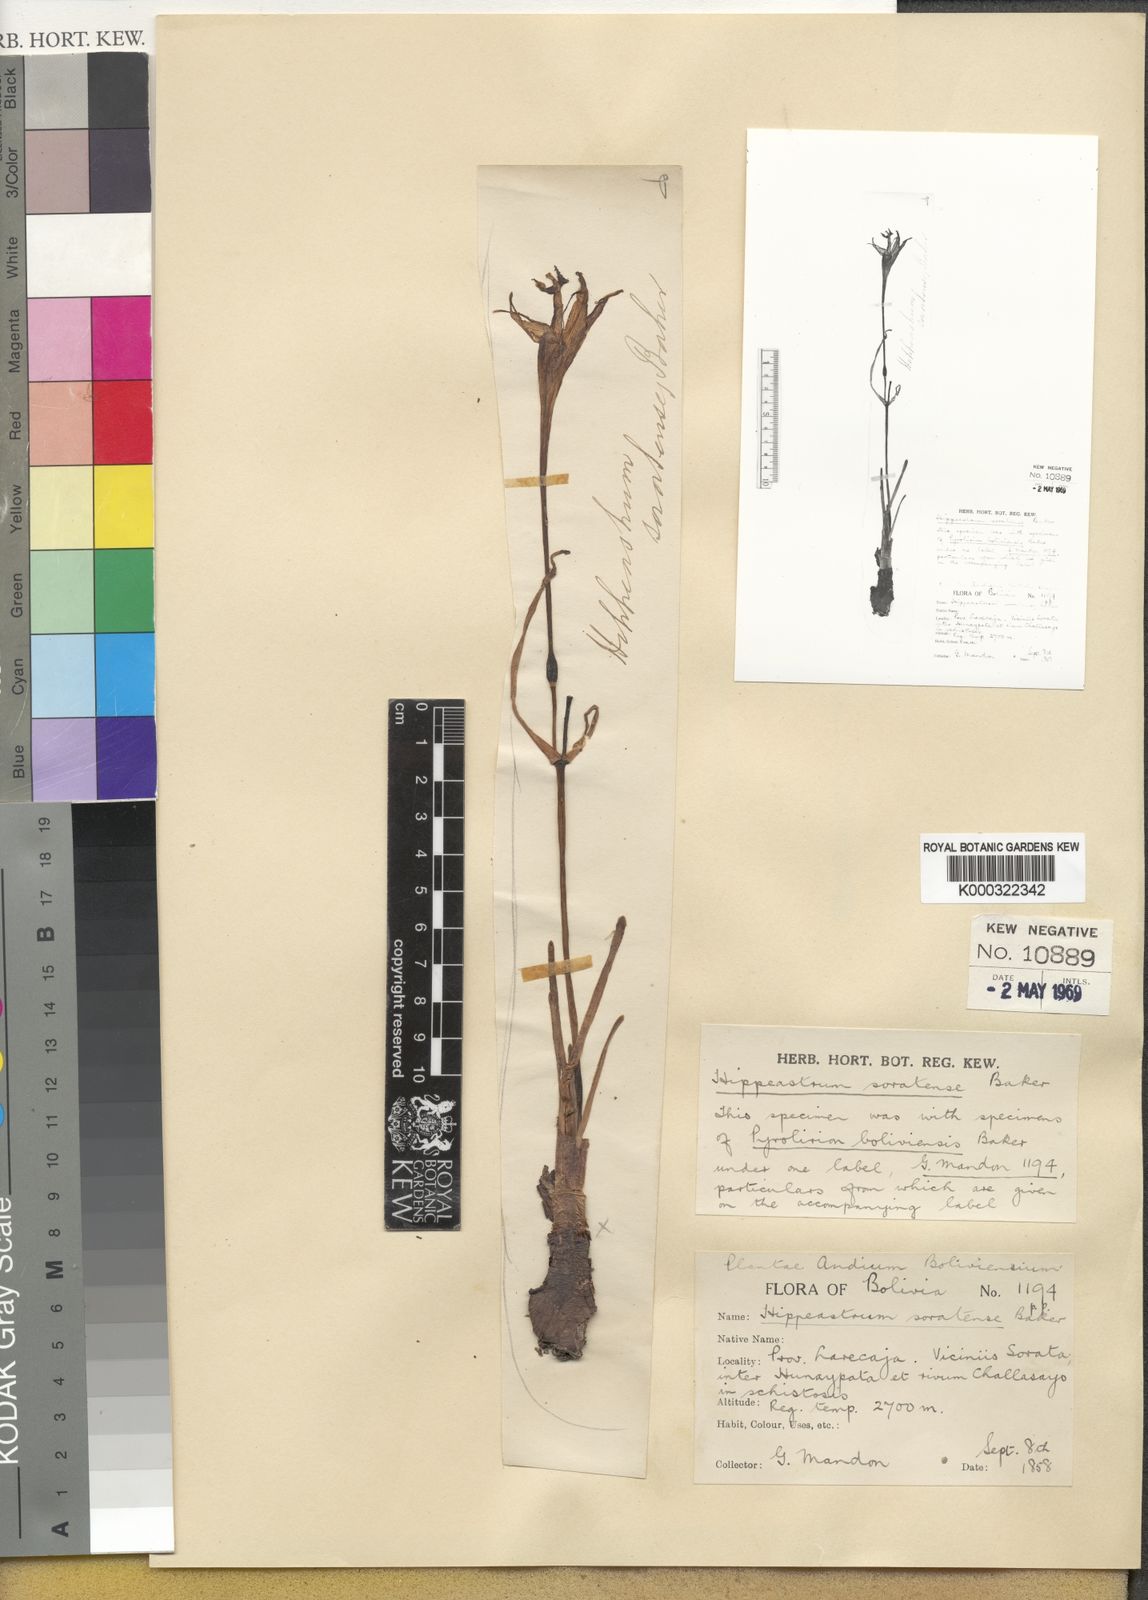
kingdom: Plantae
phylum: Tracheophyta
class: Liliopsida
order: Asparagales
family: Amaryllidaceae
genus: Chlidanthus
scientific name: Chlidanthus soratensis
